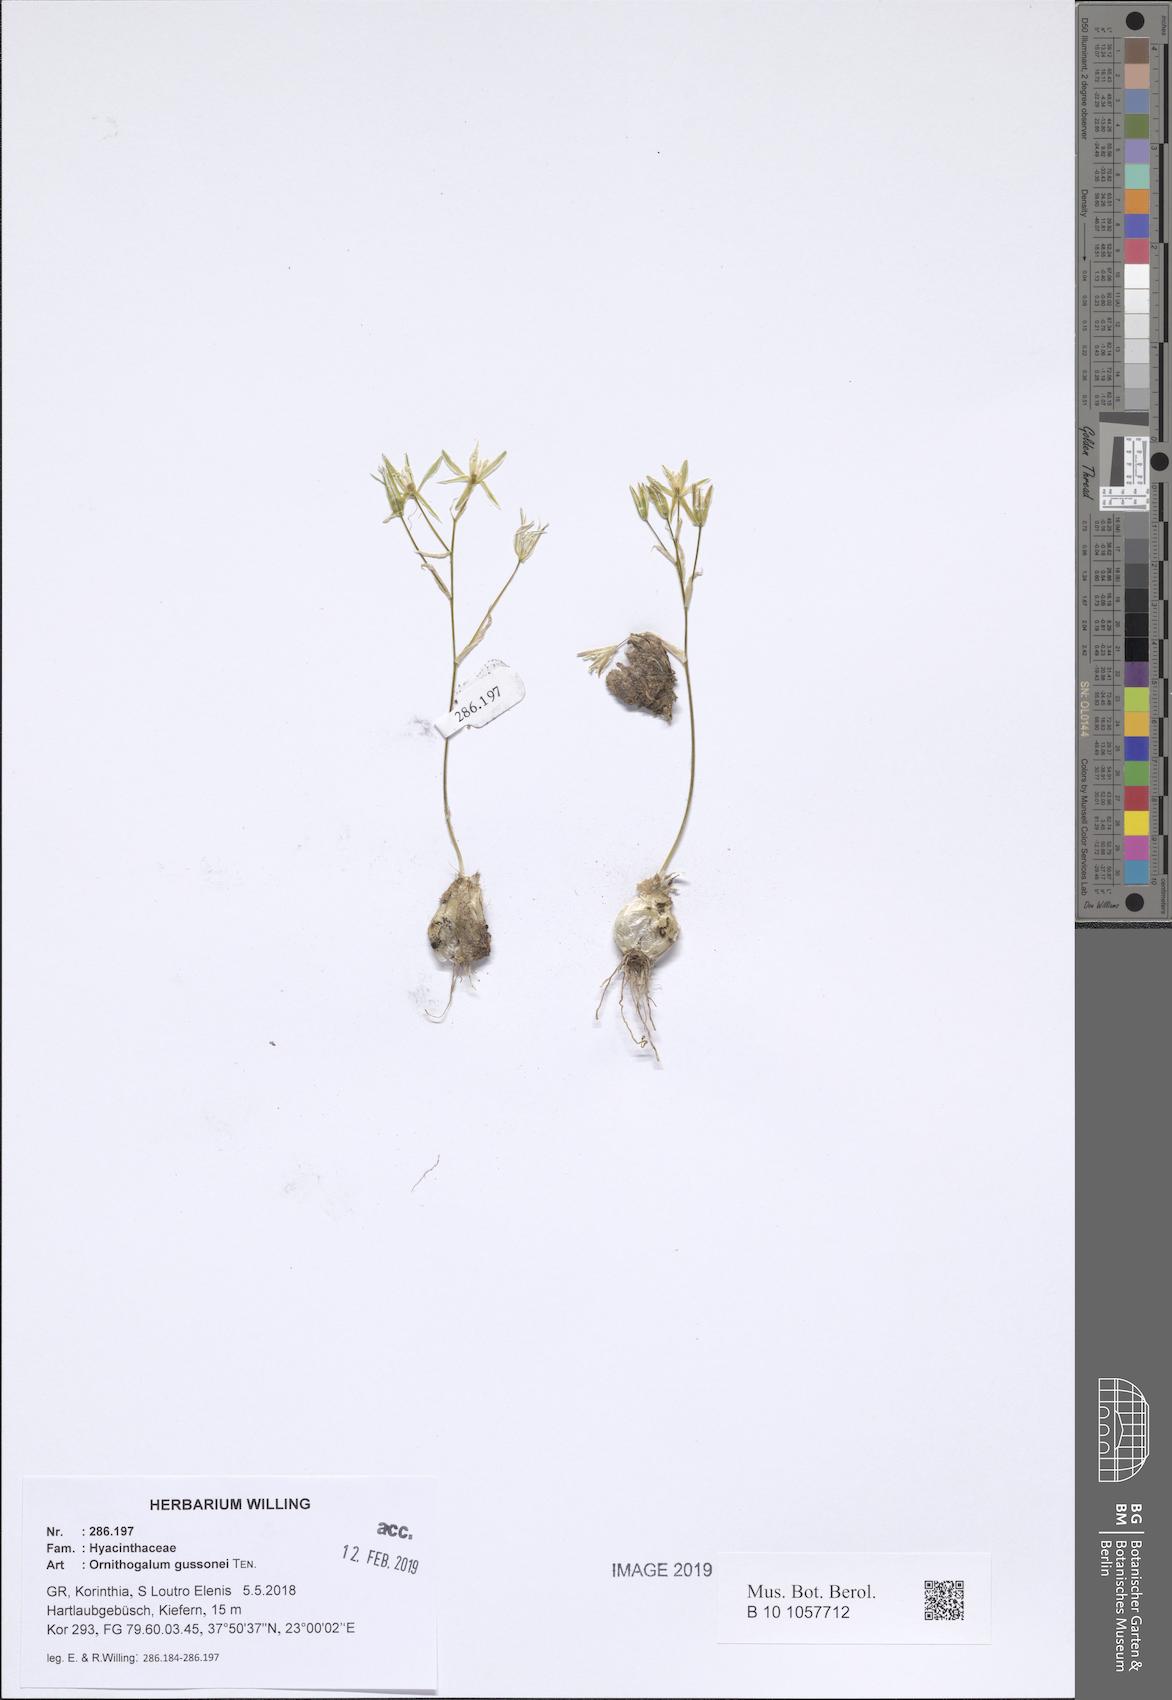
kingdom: Plantae
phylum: Tracheophyta
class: Liliopsida
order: Asparagales
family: Asparagaceae
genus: Ornithogalum
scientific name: Ornithogalum gussonei
